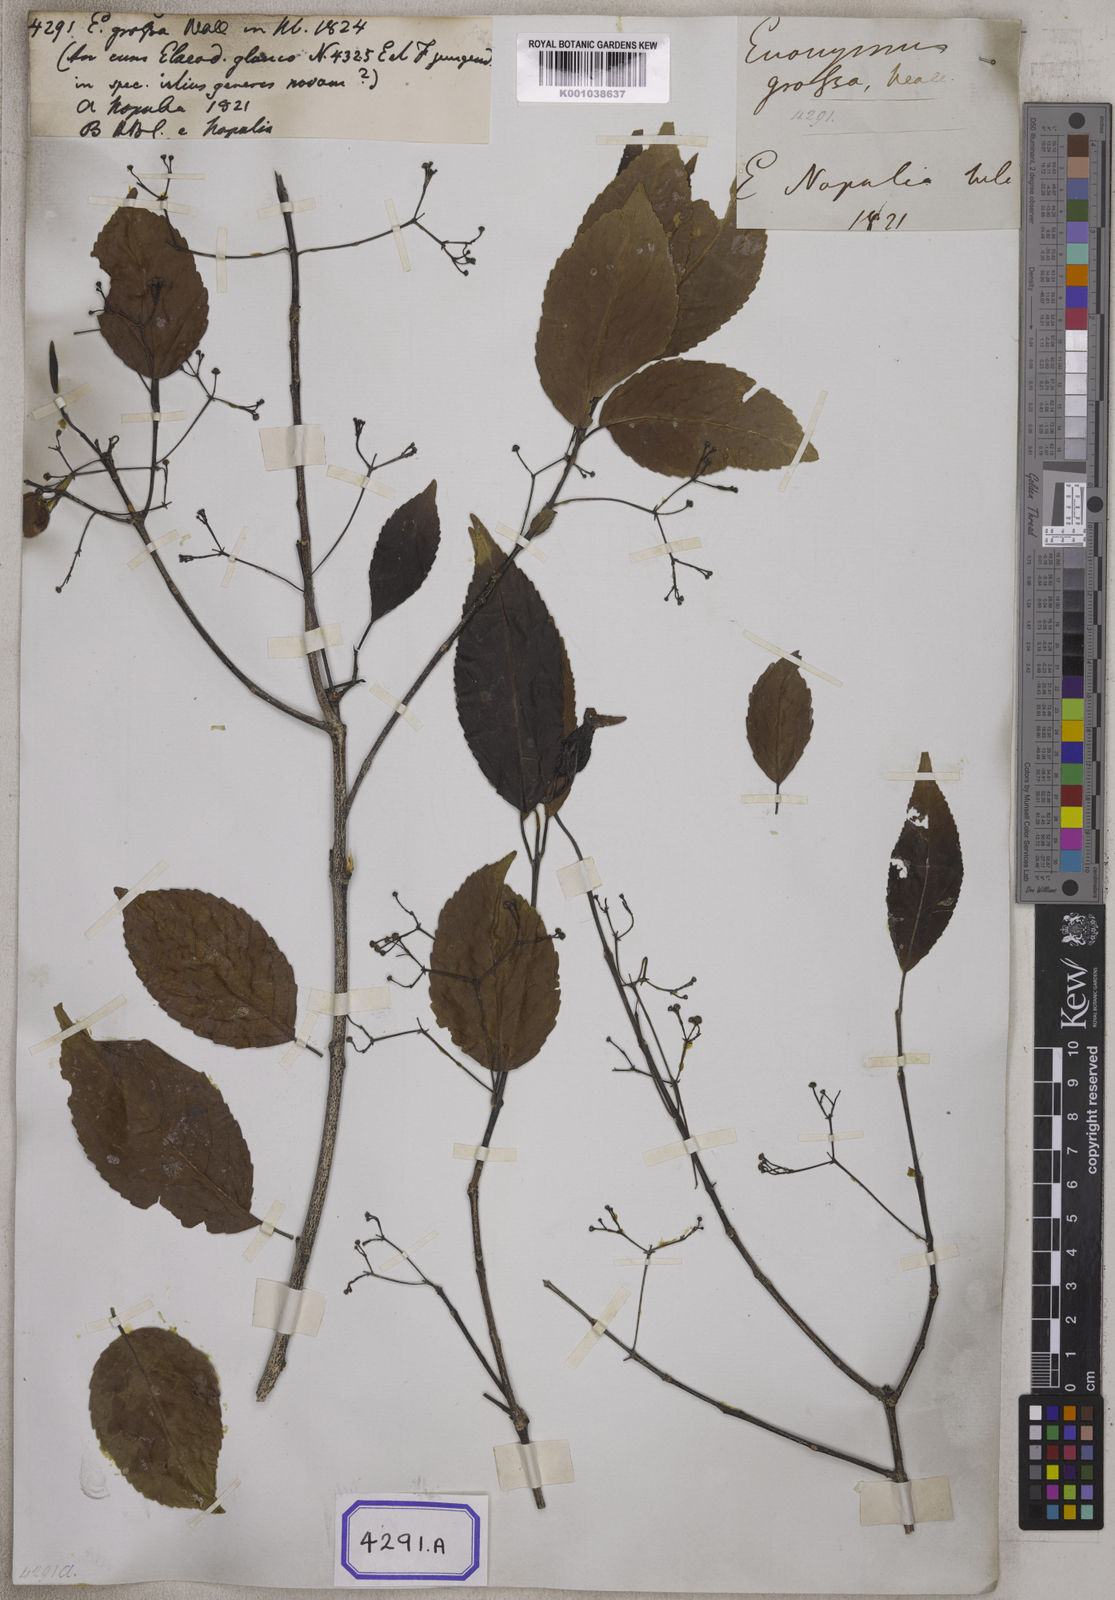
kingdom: Plantae
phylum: Tracheophyta
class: Magnoliopsida
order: Celastrales
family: Celastraceae
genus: Elaeodendron
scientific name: Elaeodendron glaucum
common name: Ceylon-tea
